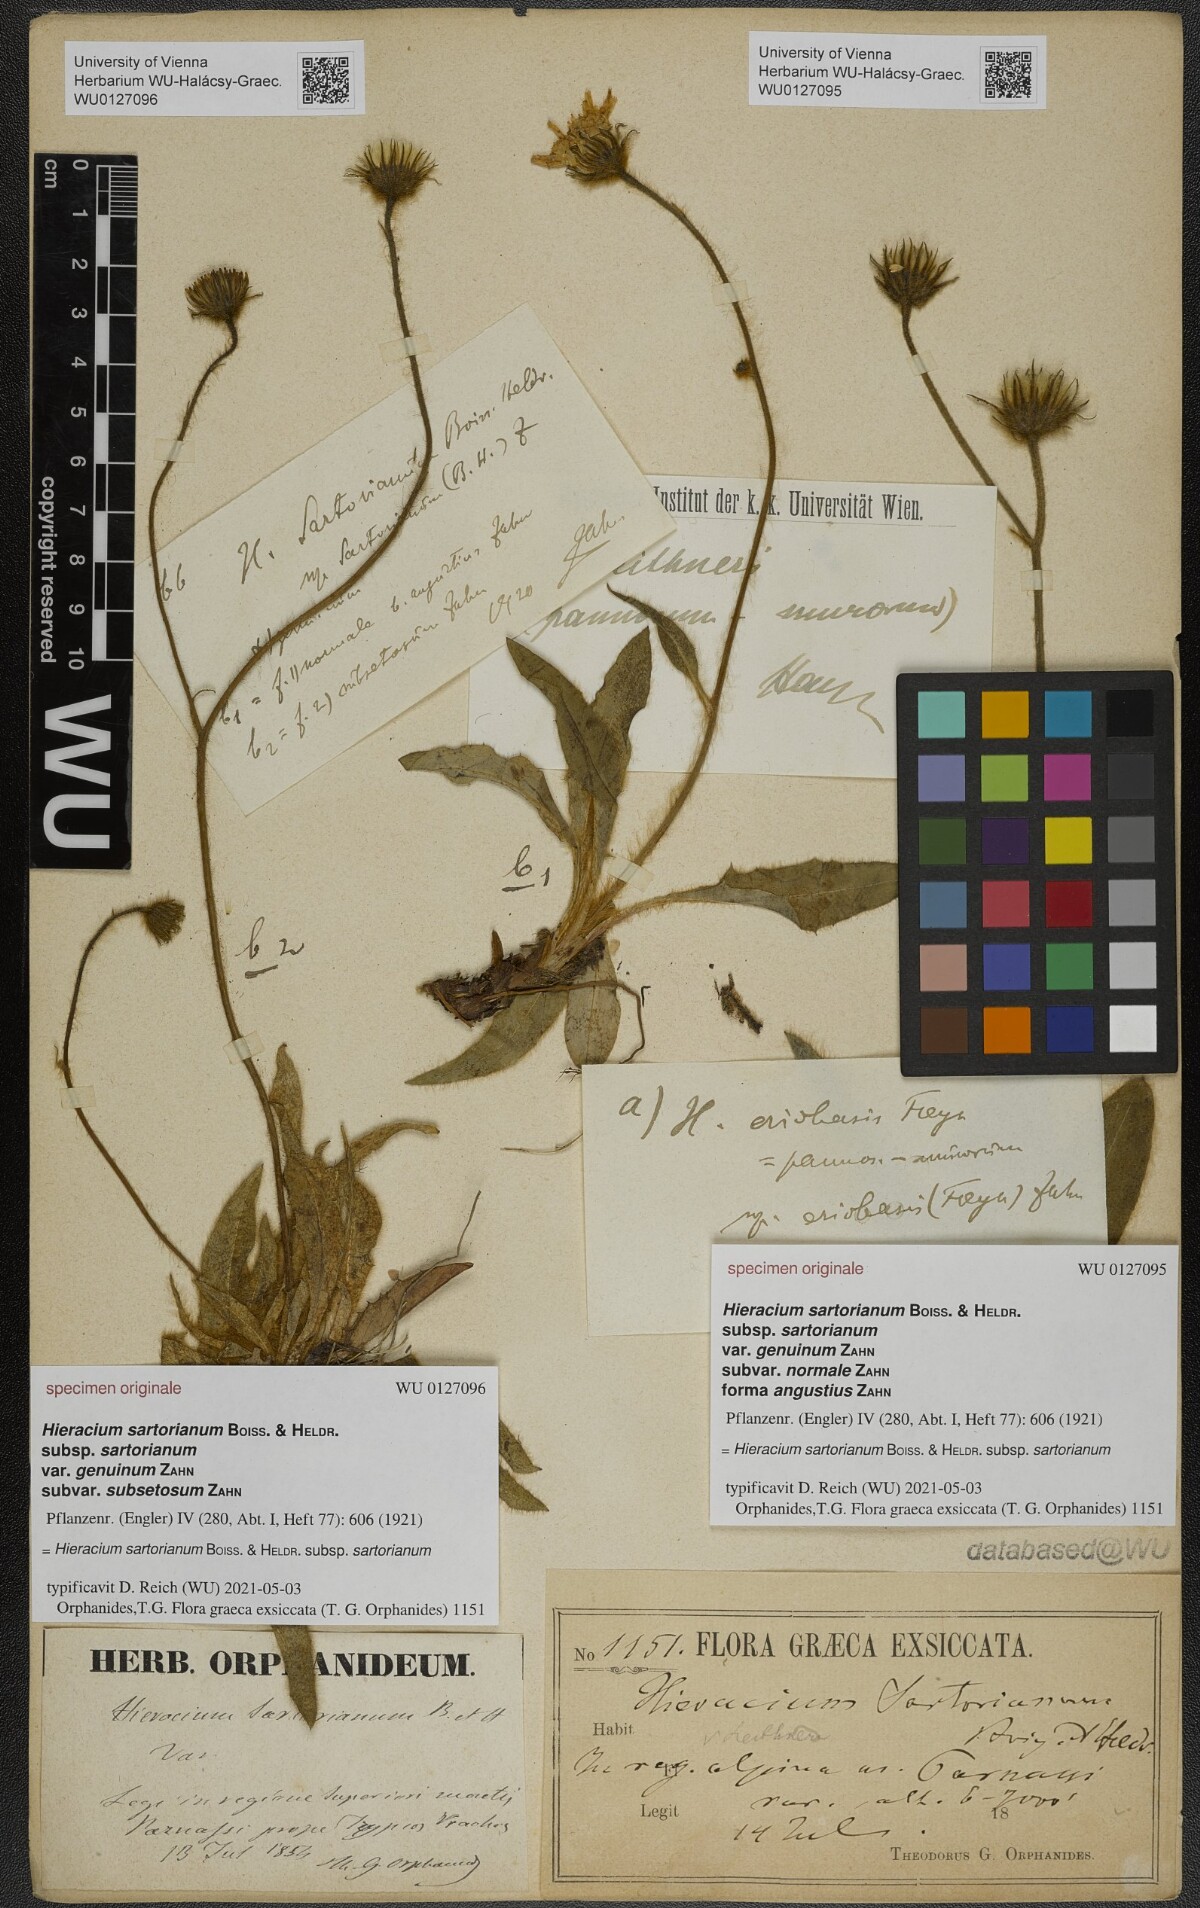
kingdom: Plantae
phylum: Tracheophyta
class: Magnoliopsida
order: Asterales
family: Asteraceae
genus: Hieracium
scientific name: Hieracium sartorianum
